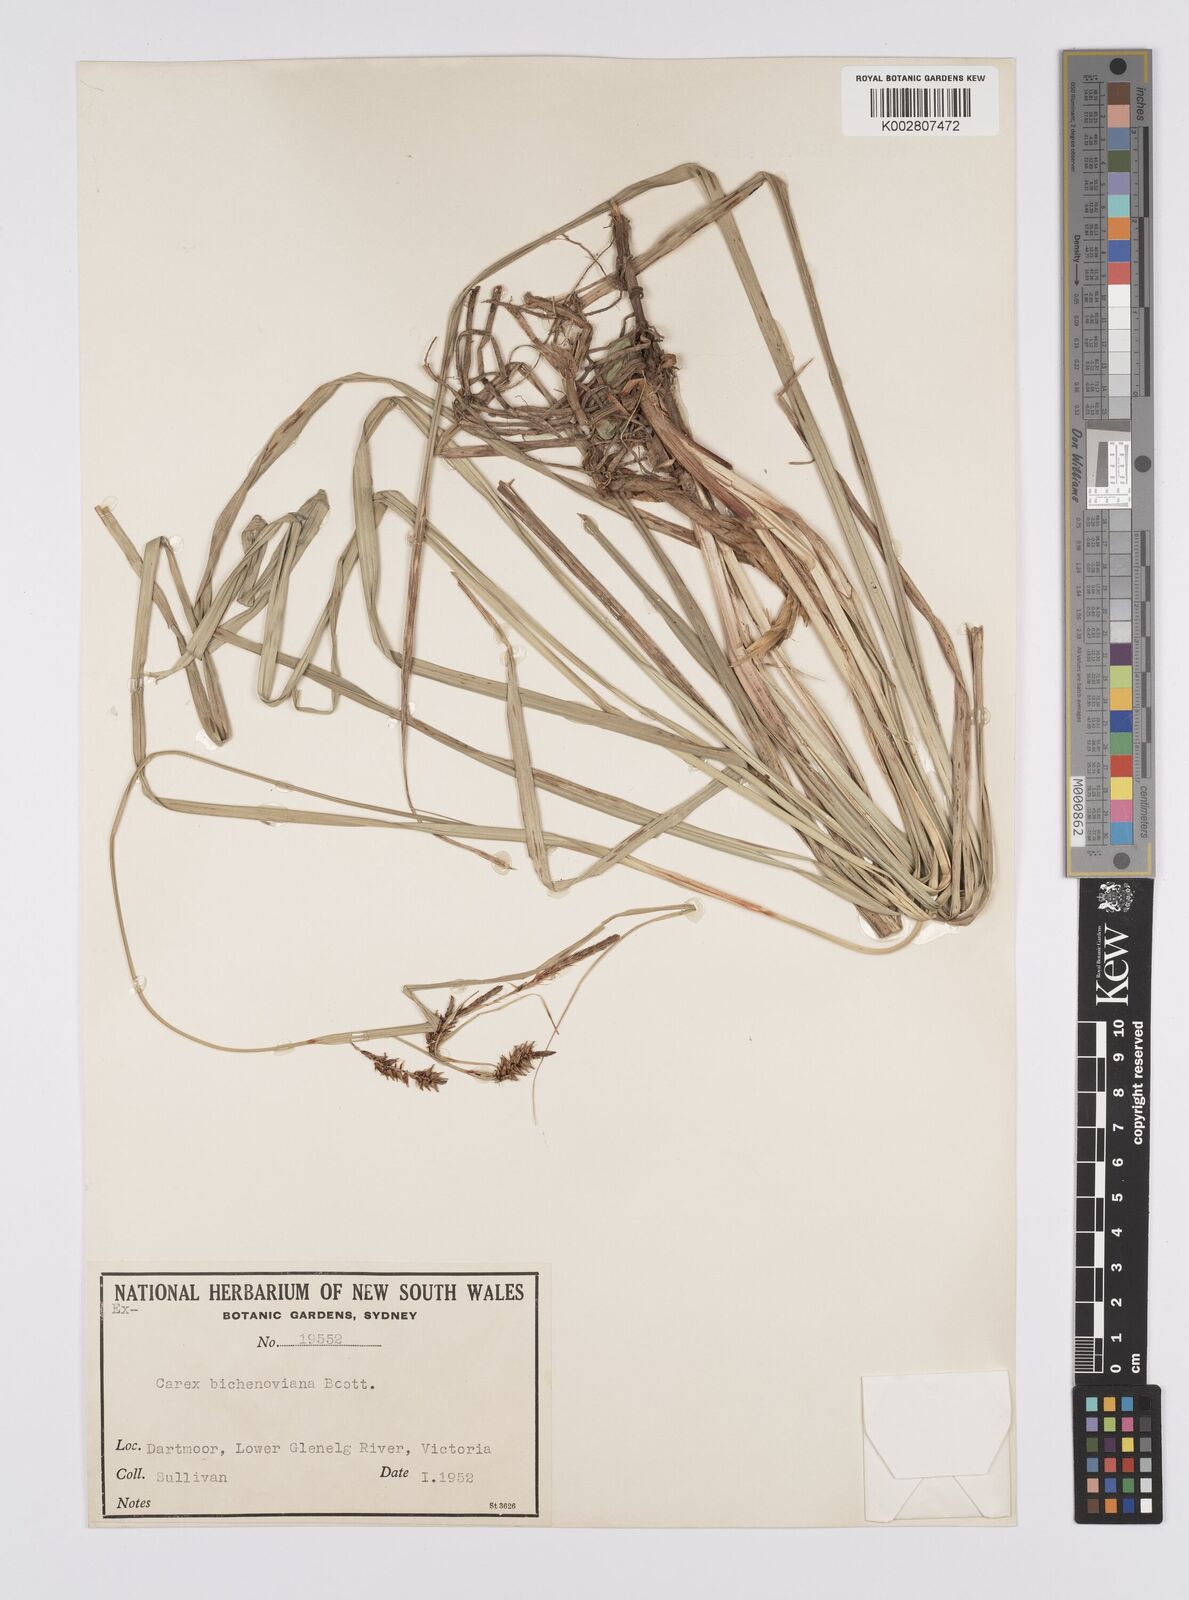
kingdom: Plantae
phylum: Tracheophyta
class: Liliopsida
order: Poales
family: Cyperaceae
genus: Carex
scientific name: Carex bichenoviana
